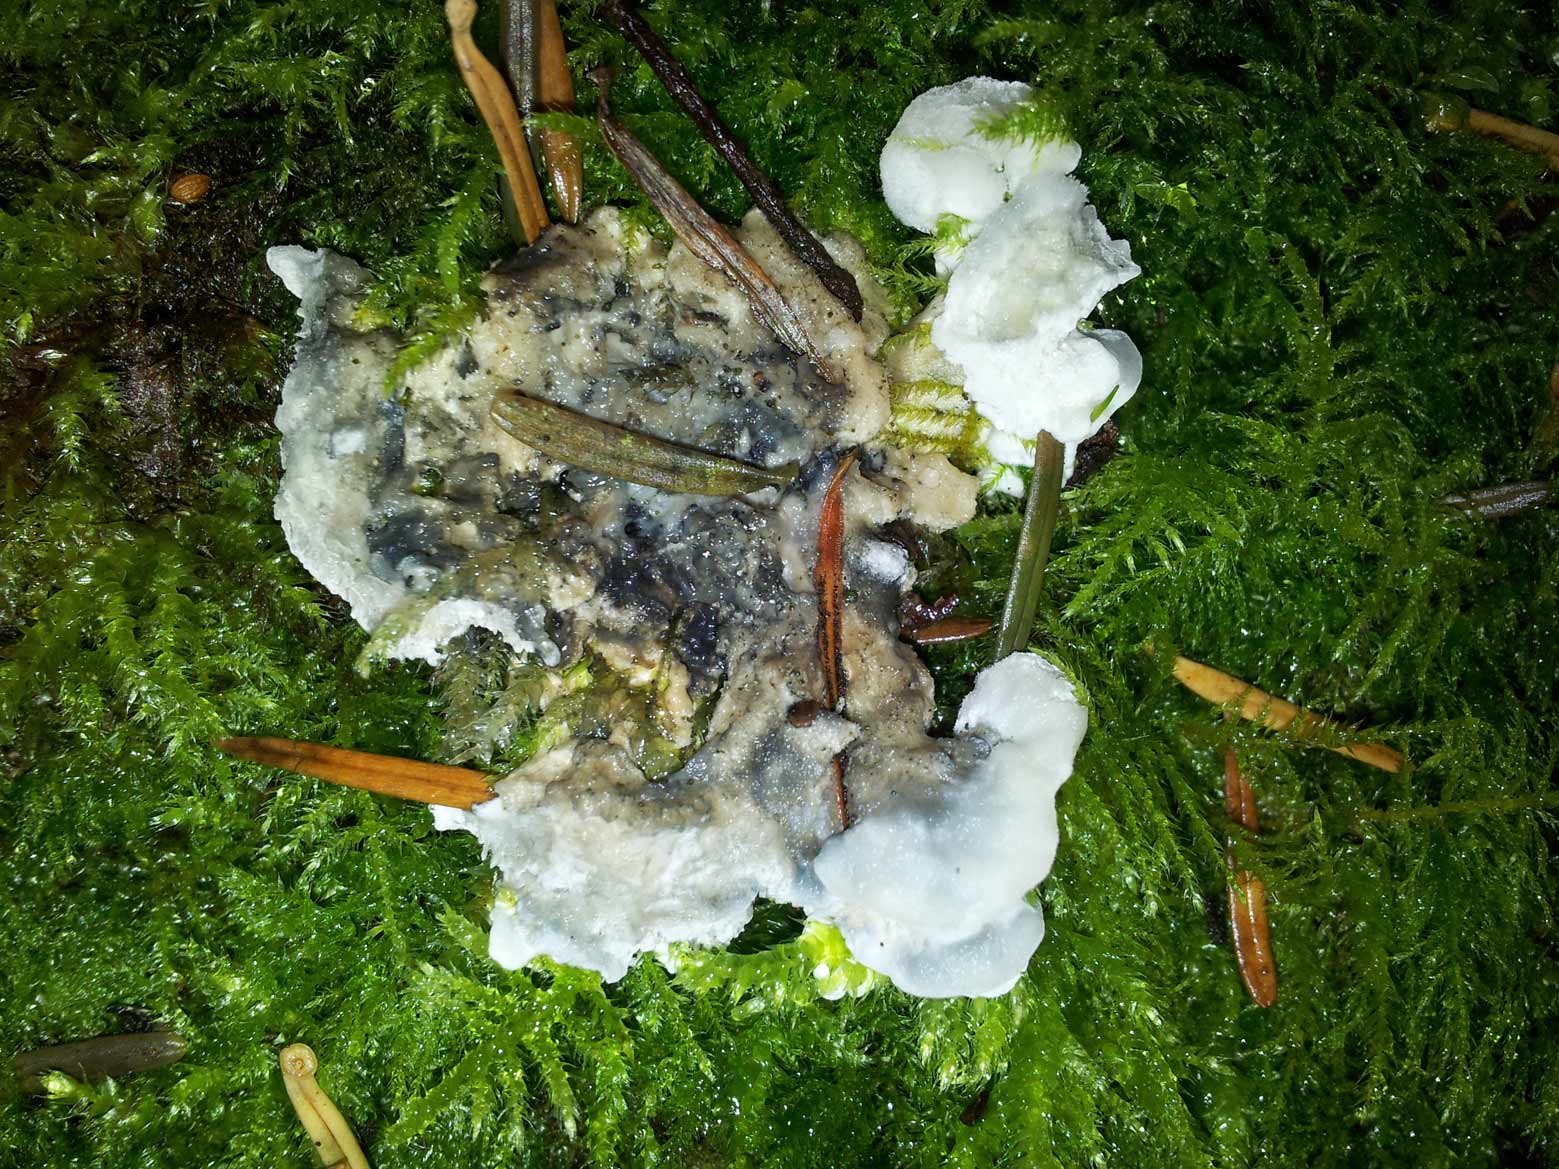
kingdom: Fungi
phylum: Basidiomycota
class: Agaricomycetes
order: Polyporales
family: Polyporaceae
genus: Cyanosporus
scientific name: Cyanosporus caesius
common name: blålig kødporesvamp
